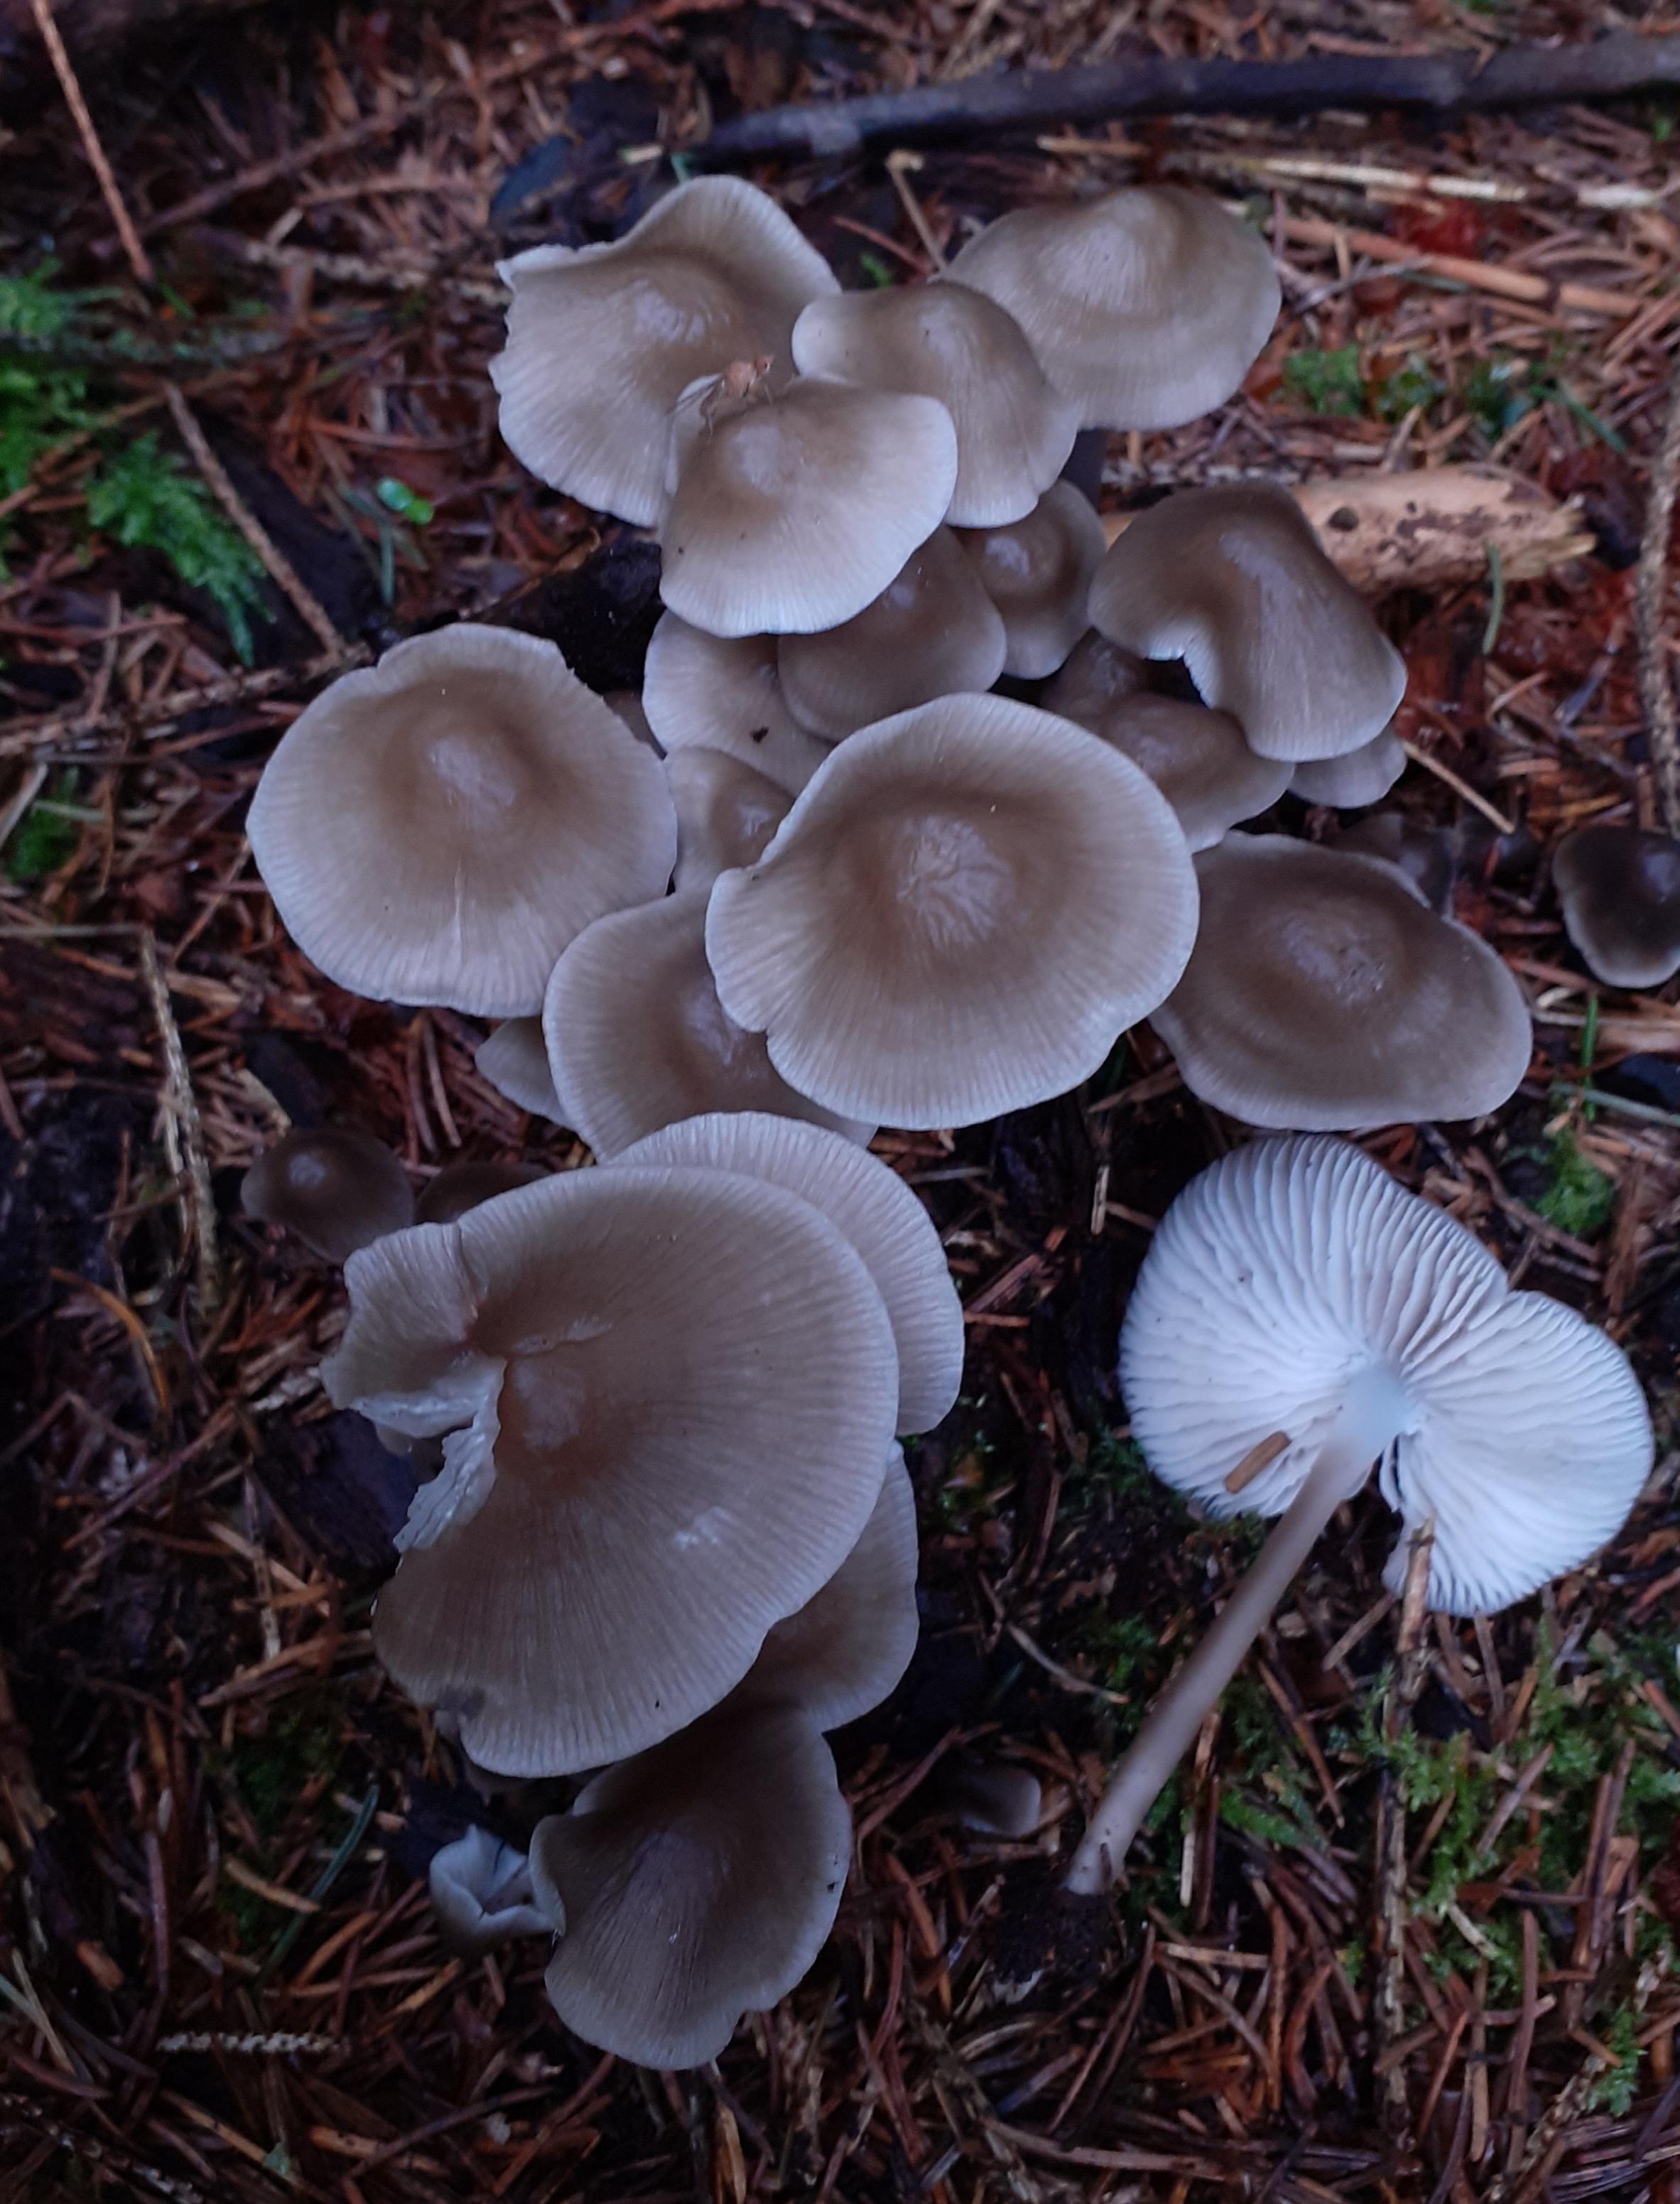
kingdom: Fungi
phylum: Basidiomycota
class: Agaricomycetes
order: Agaricales
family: Mycenaceae
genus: Mycena
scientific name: Mycena galericulata
